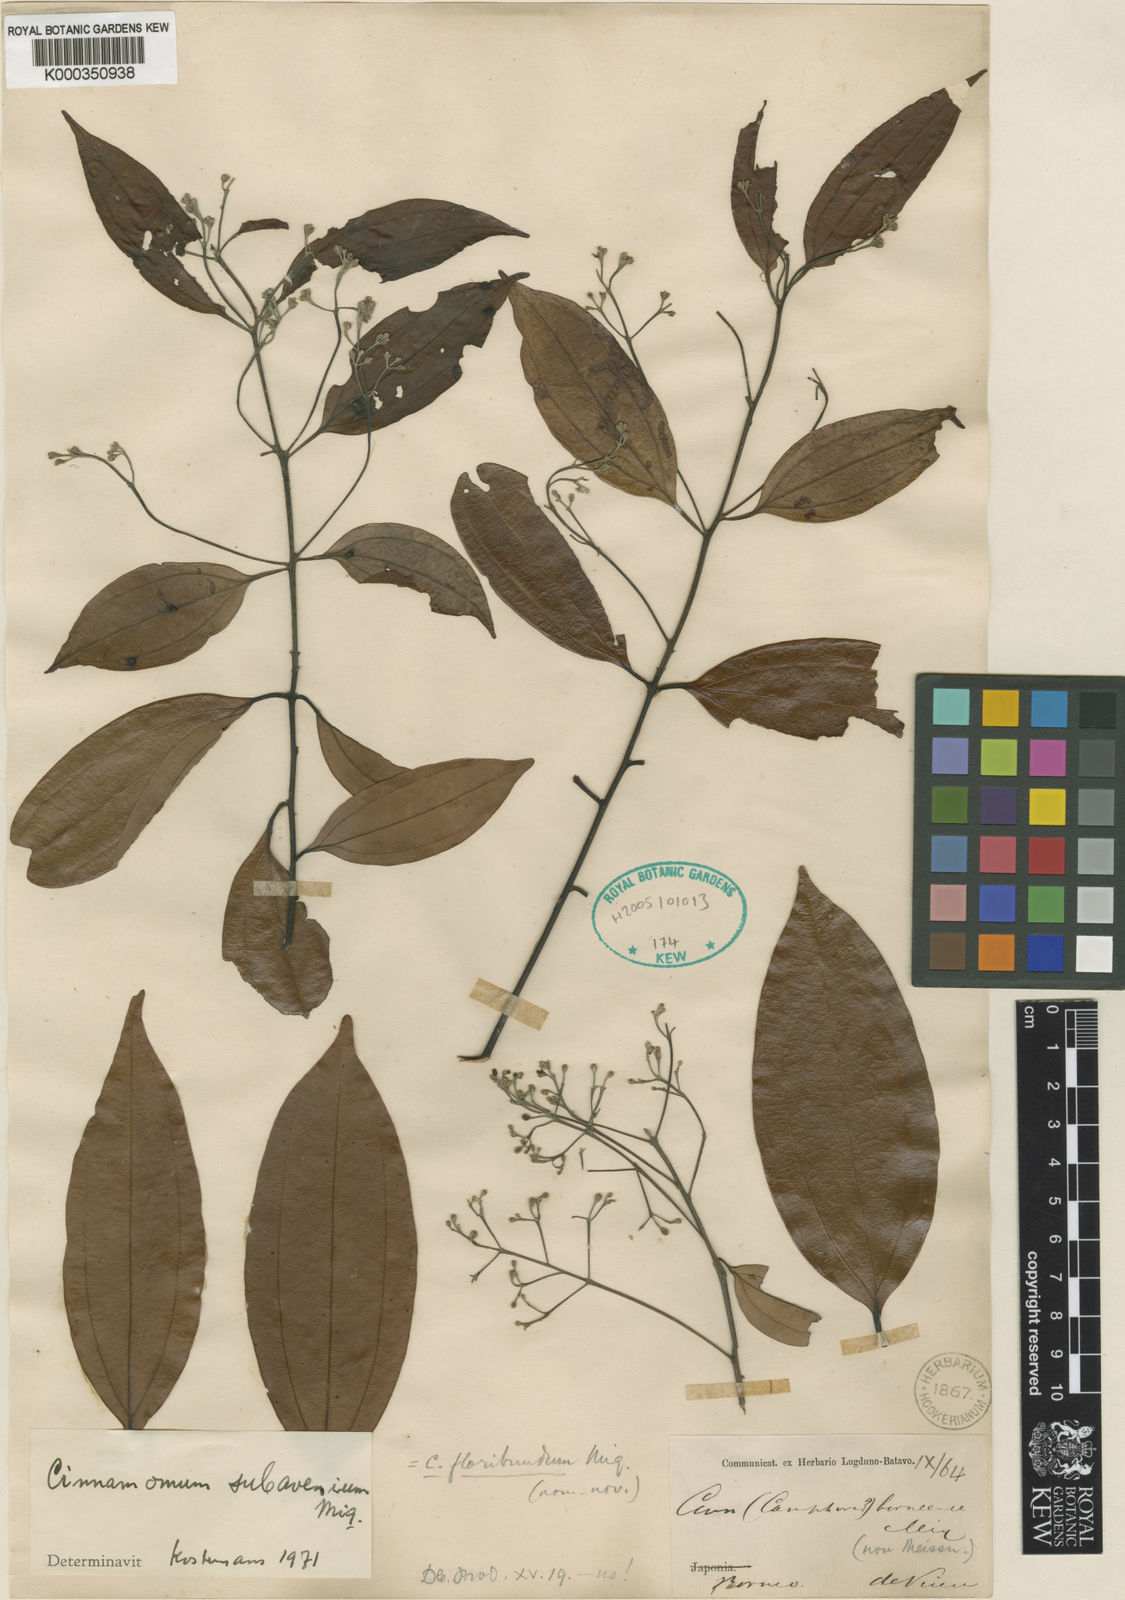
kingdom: Plantae
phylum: Tracheophyta
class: Magnoliopsida
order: Laurales
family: Lauraceae
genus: Cinnamomum
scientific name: Cinnamomum subavenium
